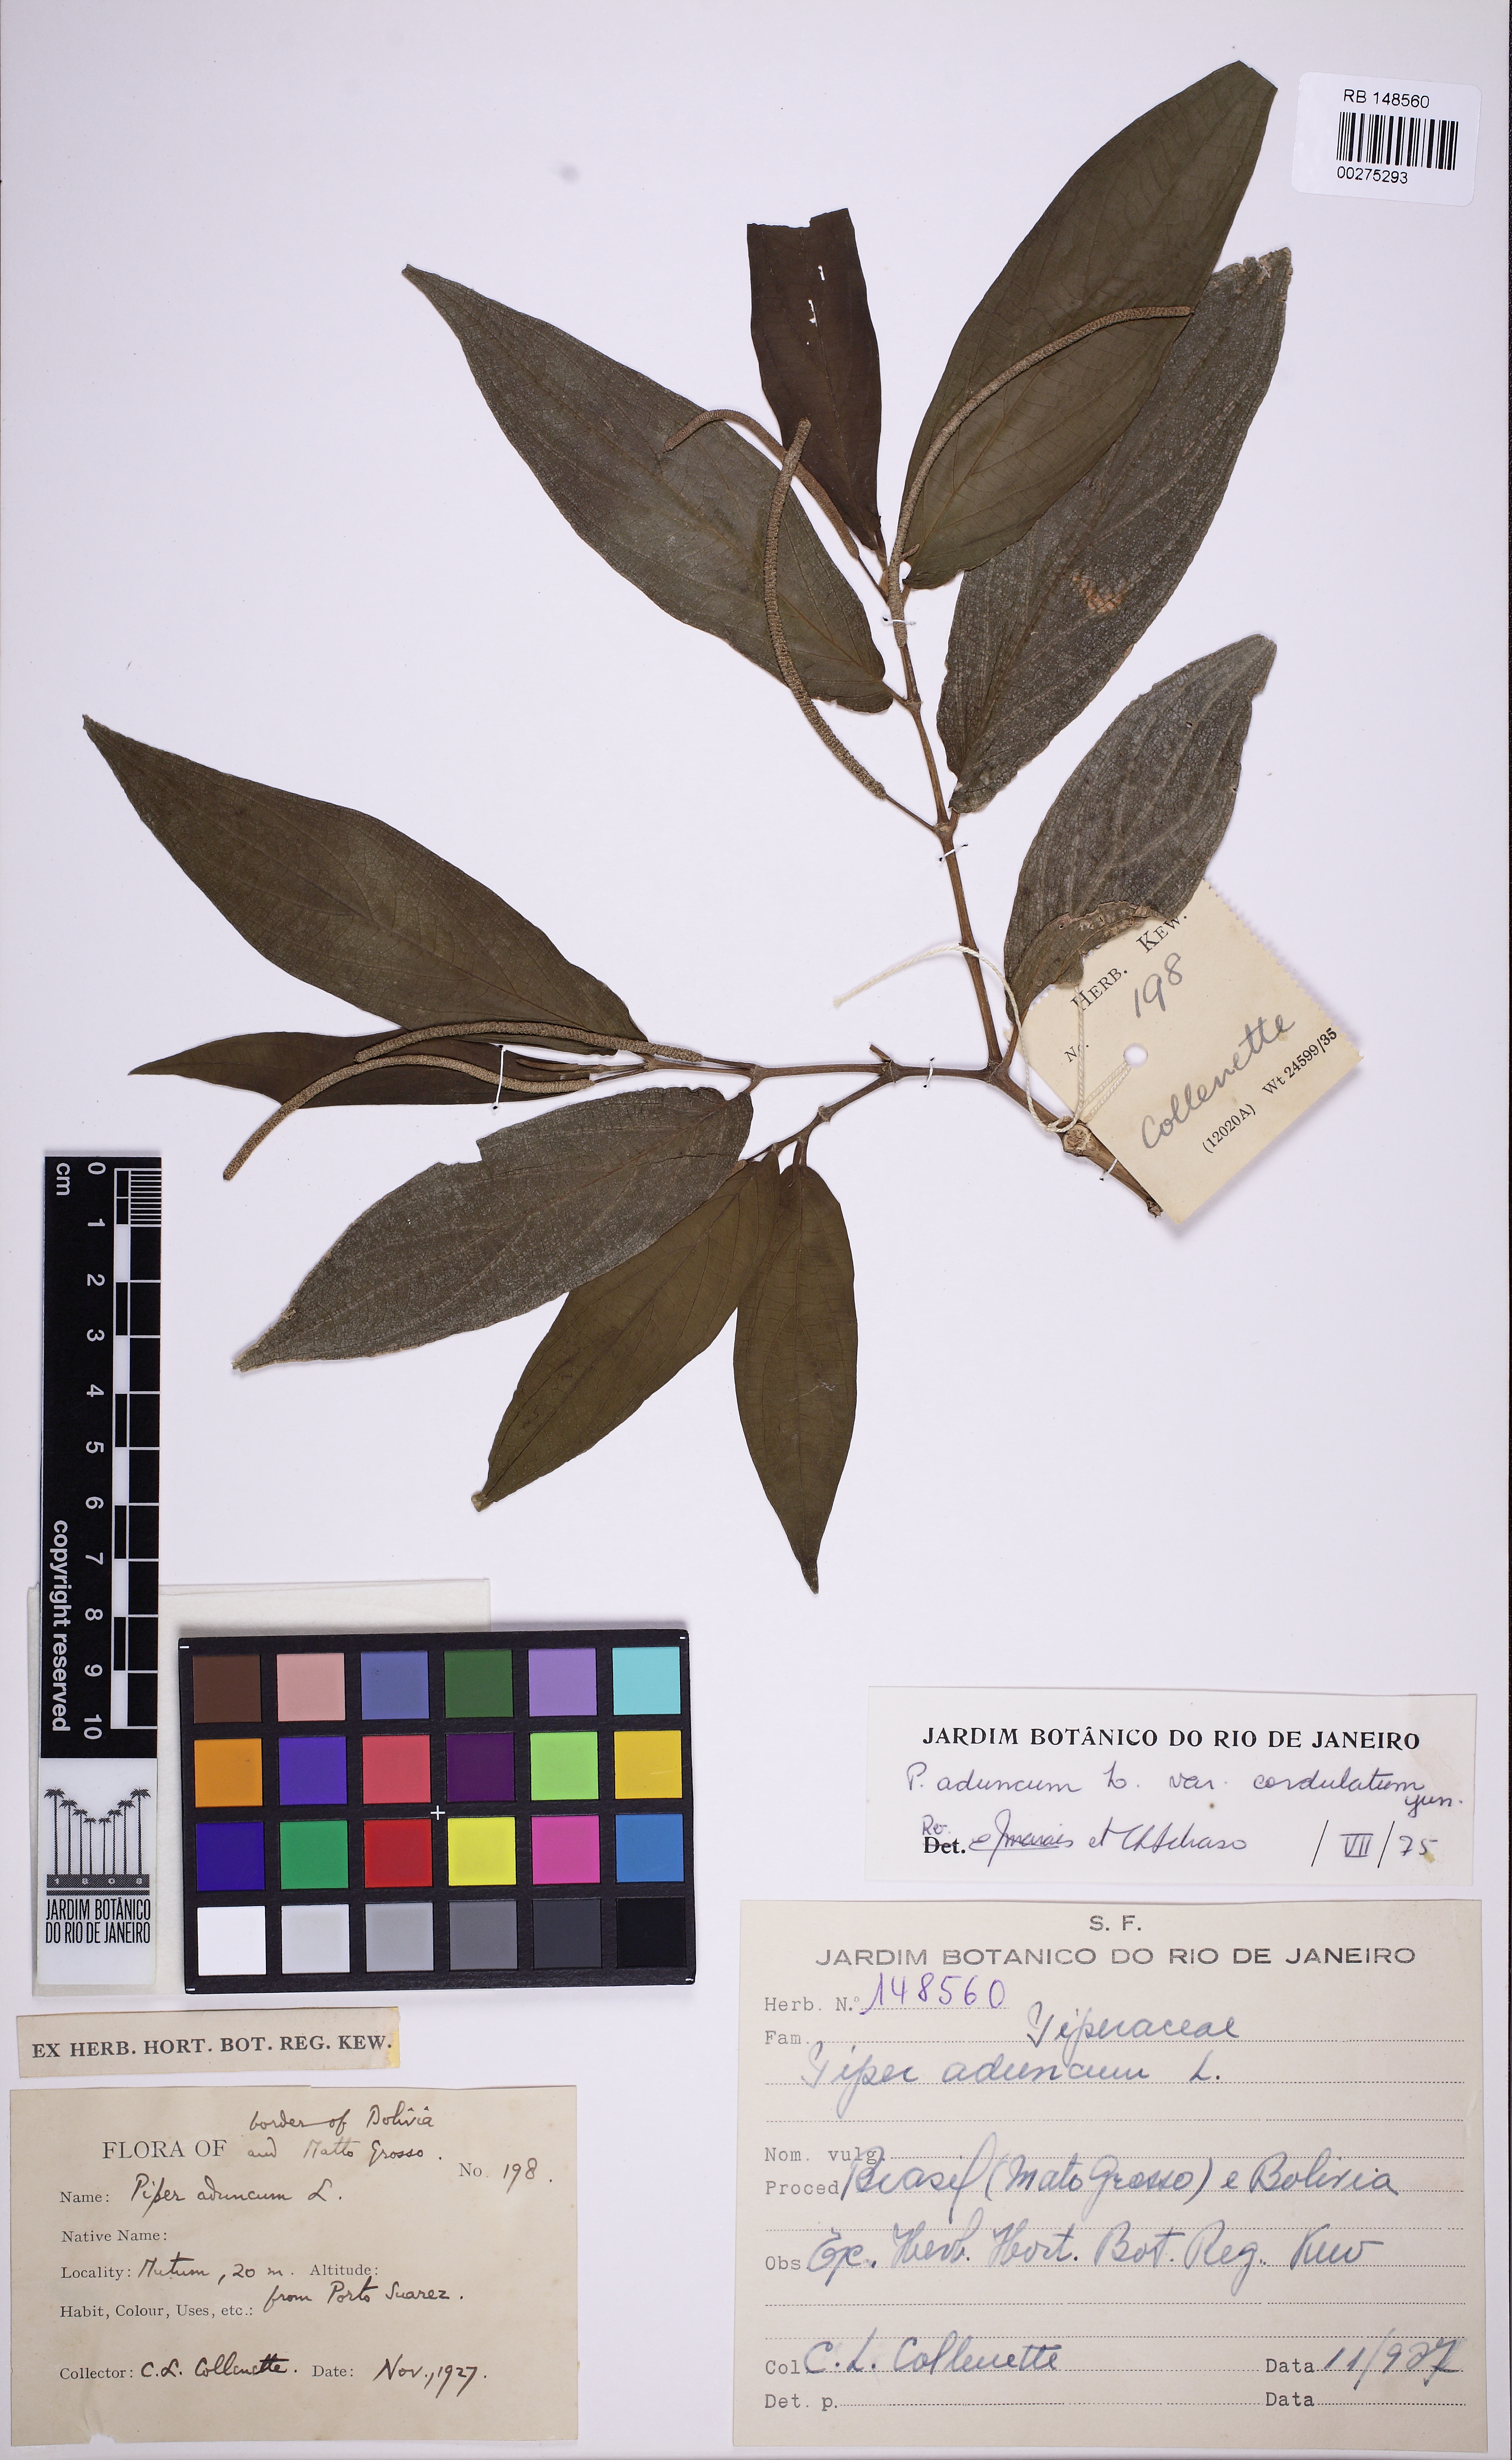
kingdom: Plantae
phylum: Tracheophyta
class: Magnoliopsida
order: Piperales
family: Piperaceae
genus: Piper
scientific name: Piper aduncum
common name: Spiked pepper
